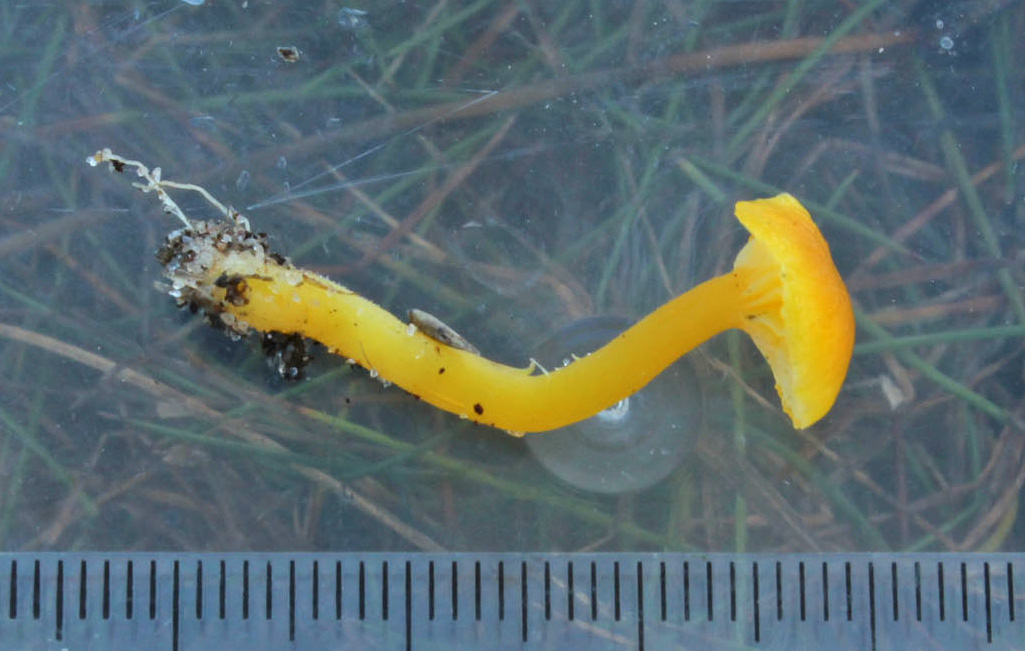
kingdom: Fungi
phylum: Basidiomycota
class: Agaricomycetes
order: Agaricales
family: Hygrophoraceae
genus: Hygrocybe
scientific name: Hygrocybe ceracea
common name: voksgul vokshat
